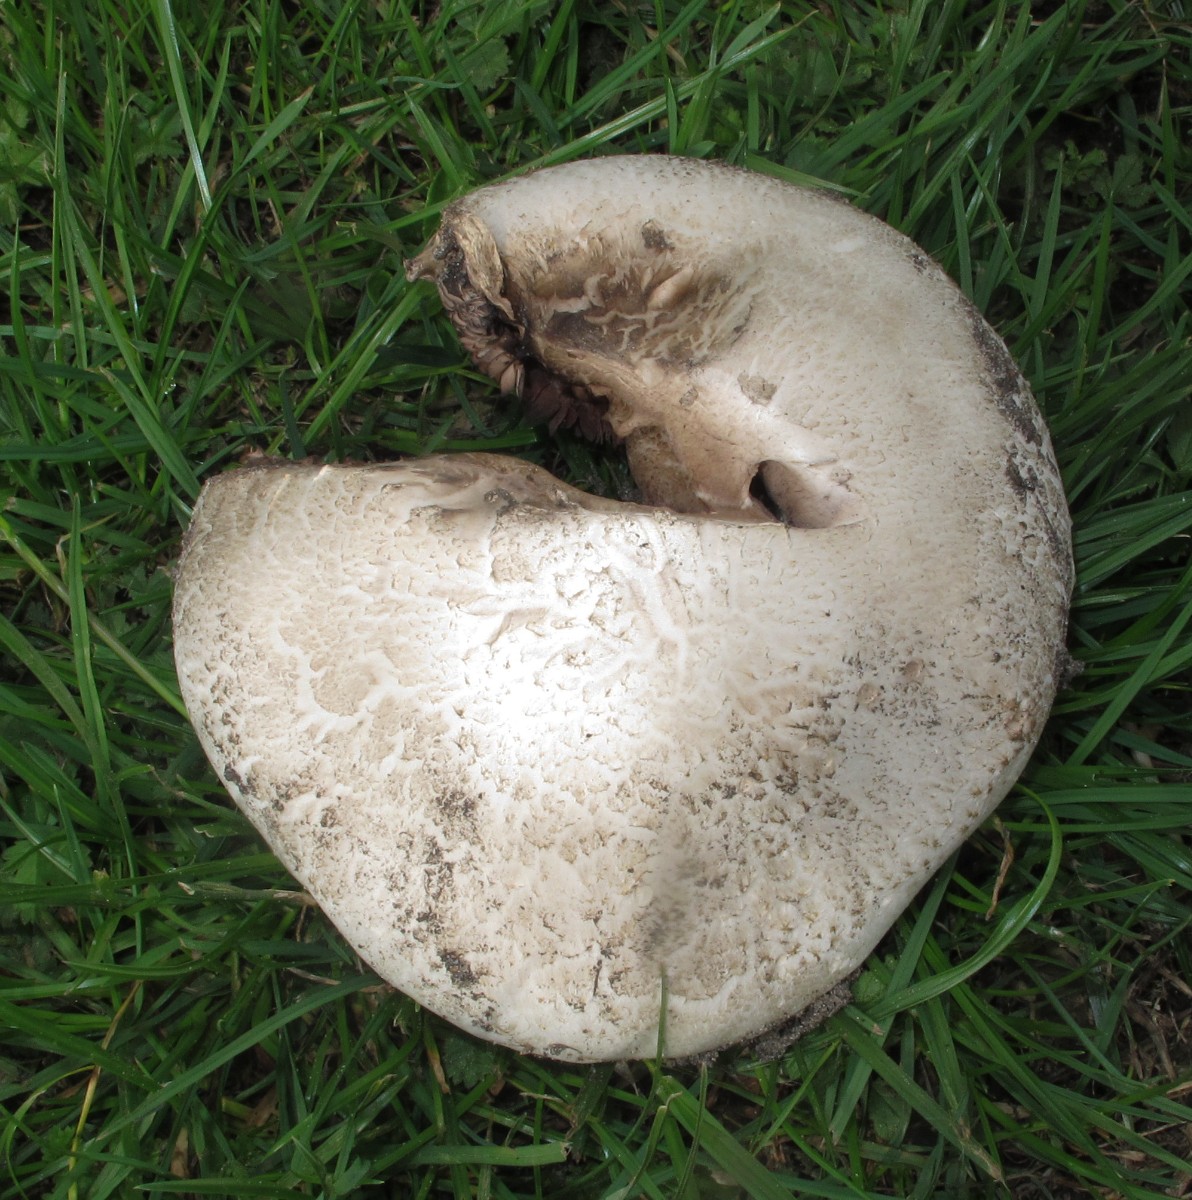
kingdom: Fungi
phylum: Basidiomycota
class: Agaricomycetes
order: Agaricales
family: Agaricaceae
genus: Agaricus
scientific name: Agaricus
